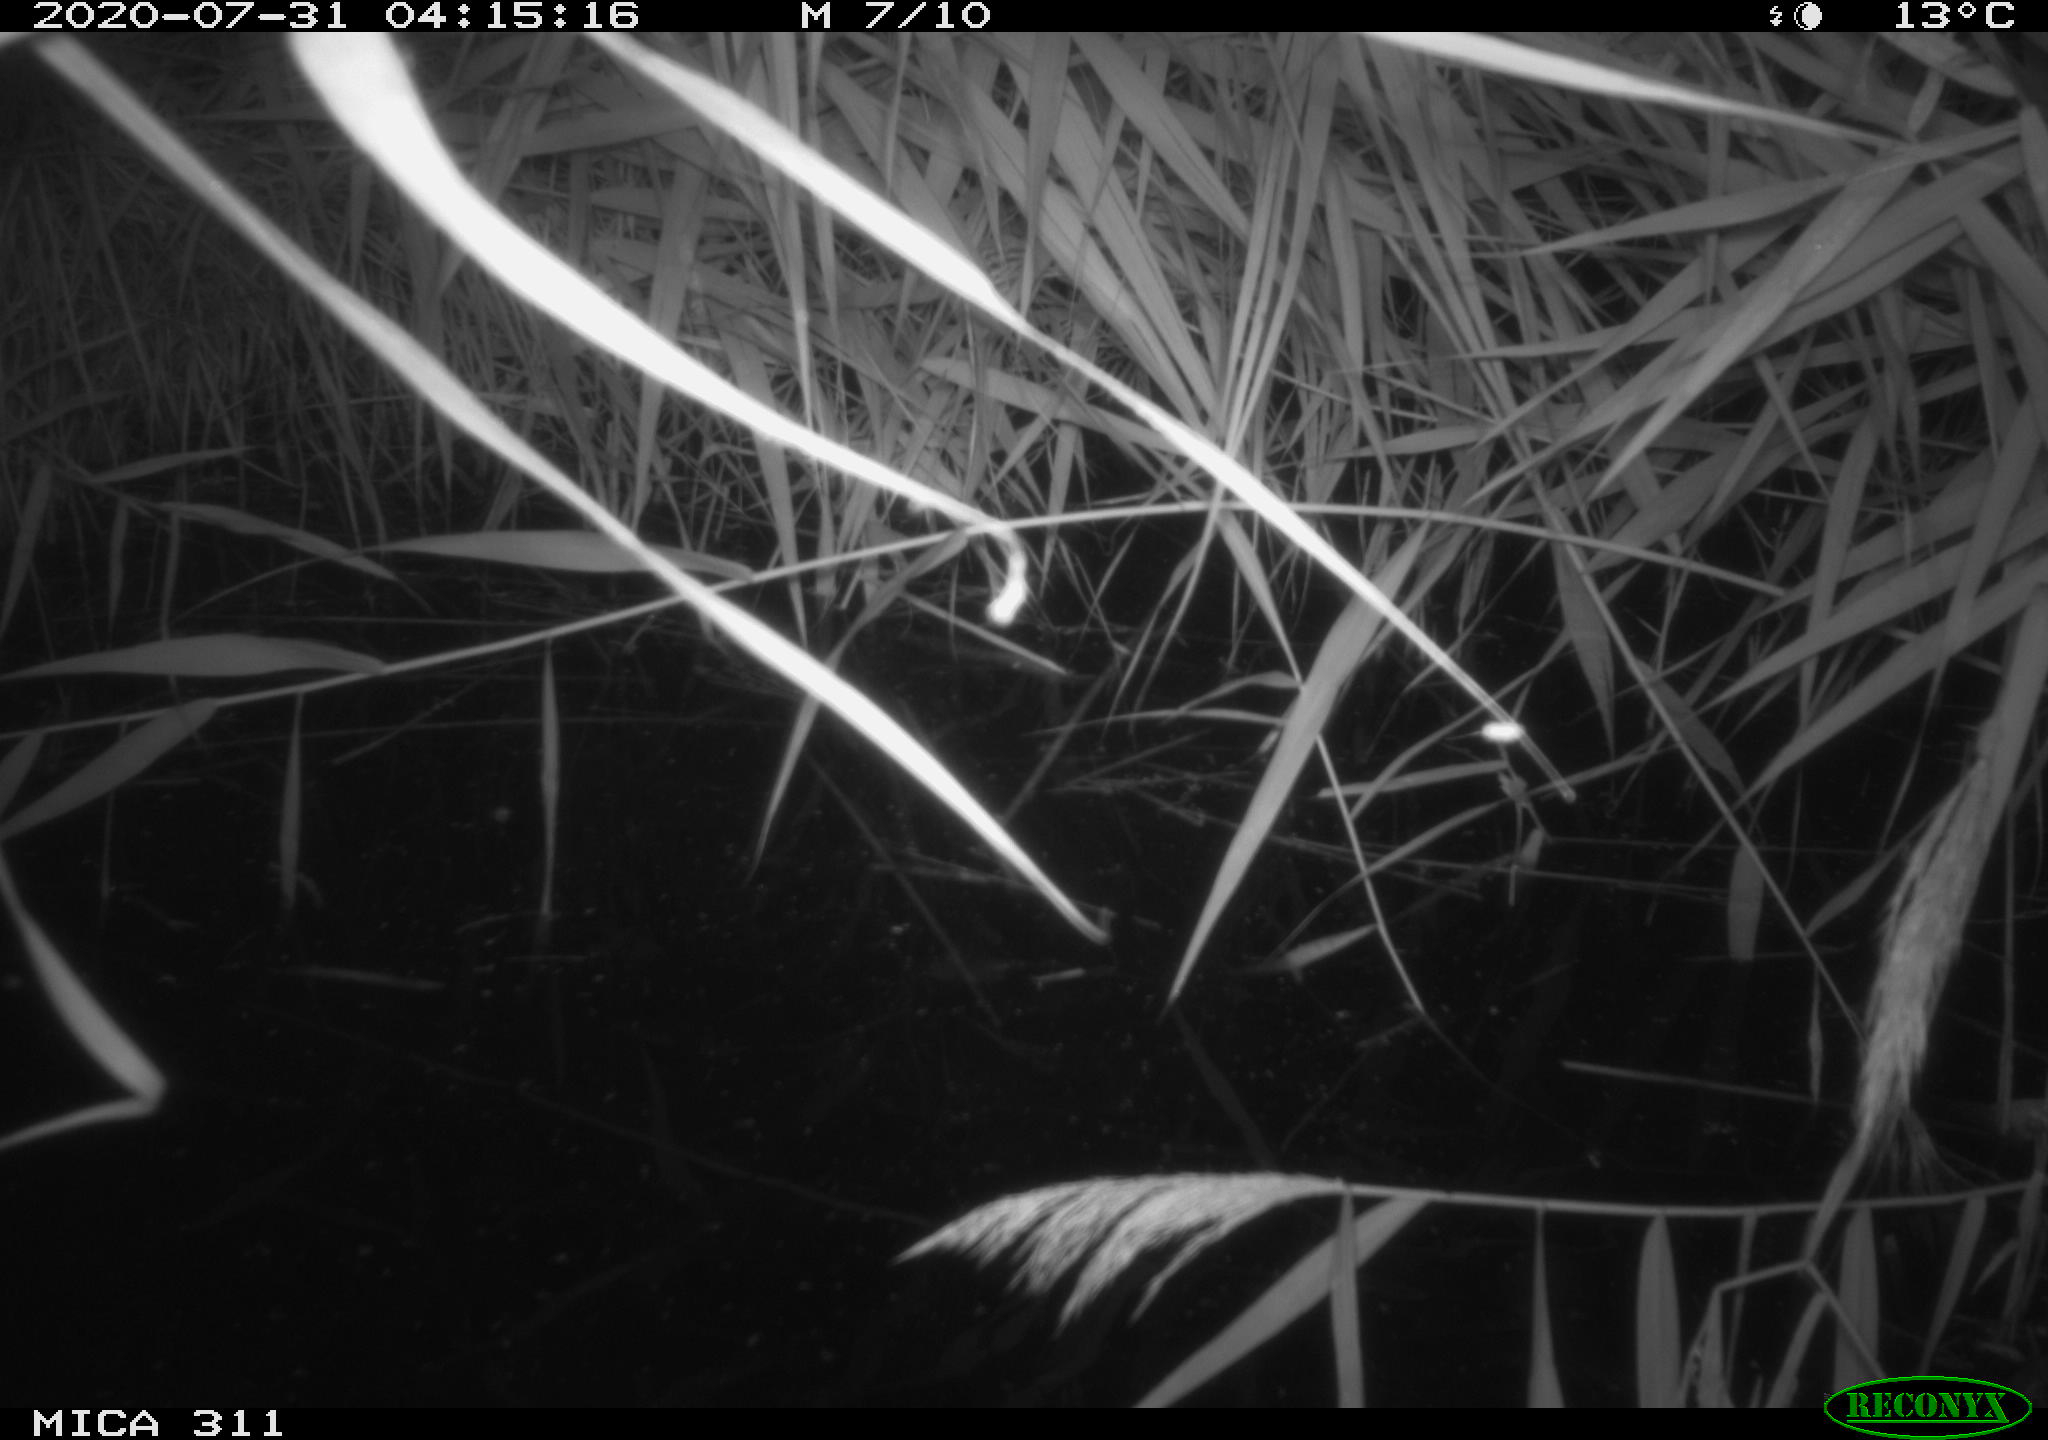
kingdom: Animalia
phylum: Chordata
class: Mammalia
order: Rodentia
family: Muridae
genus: Rattus
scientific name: Rattus norvegicus
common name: Brown rat
